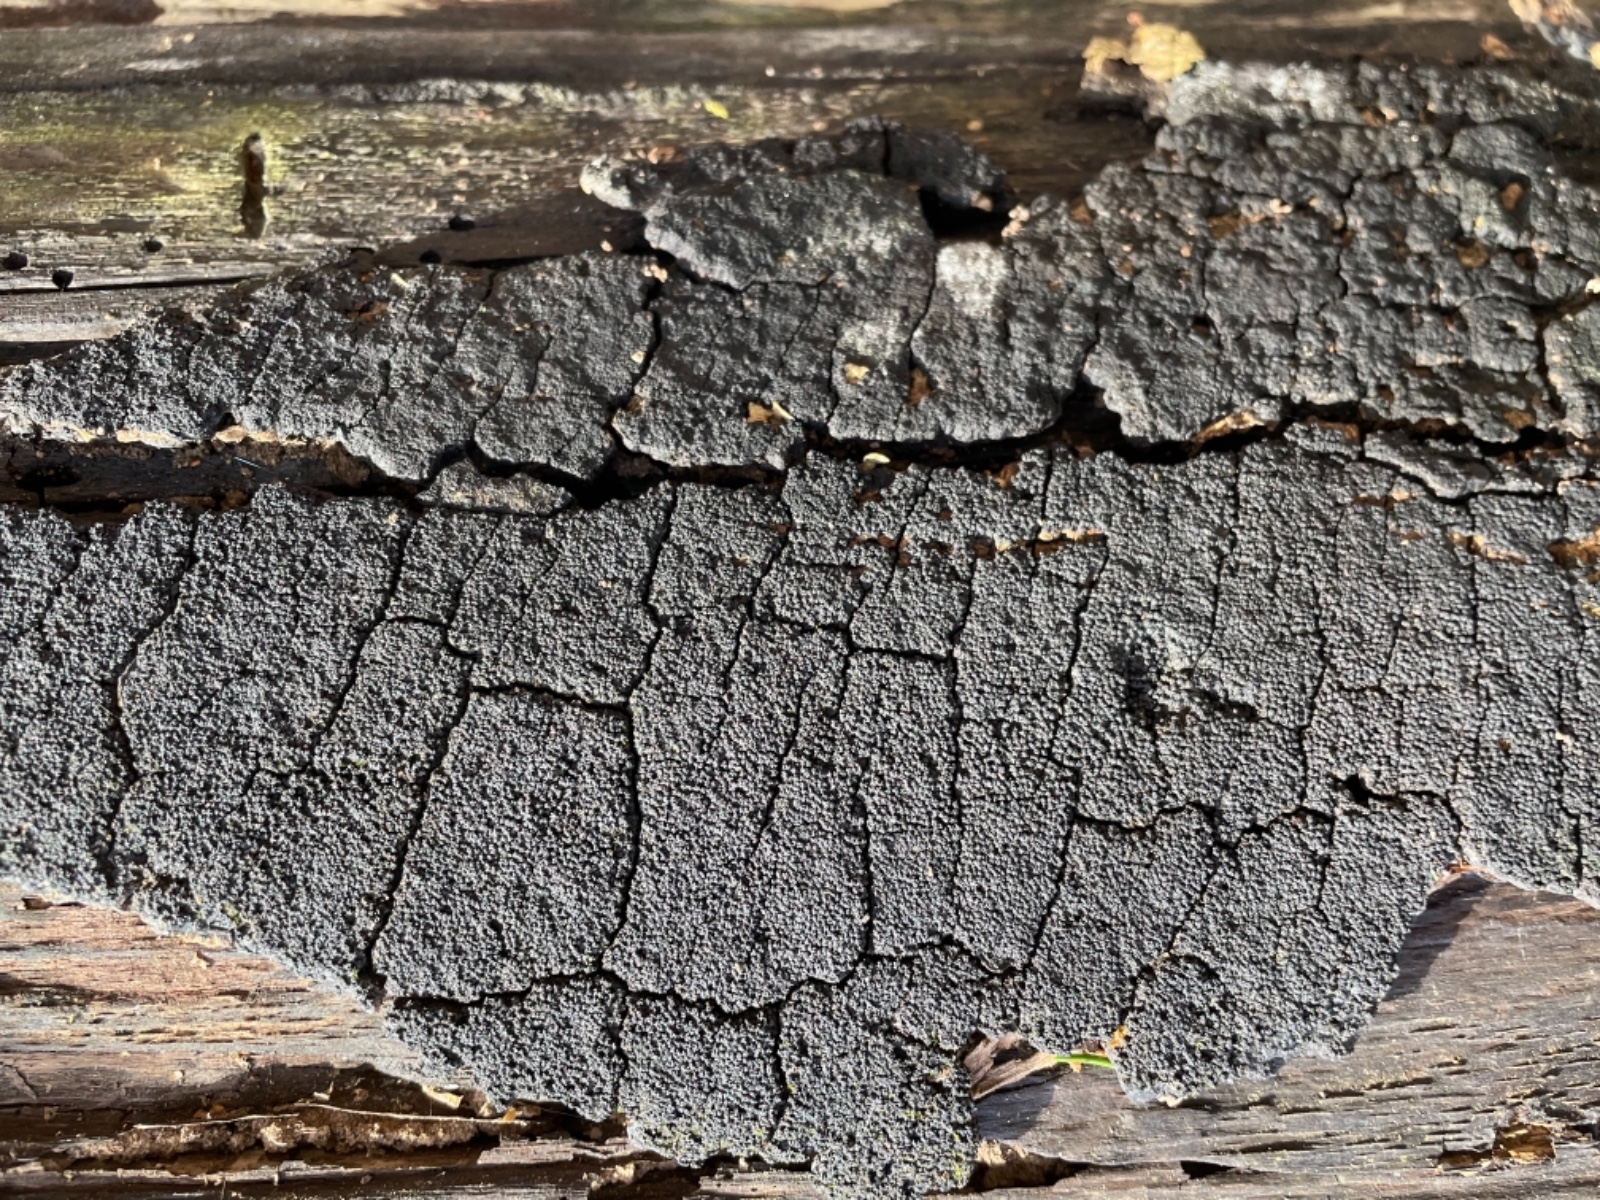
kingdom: Fungi
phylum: Ascomycota
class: Sordariomycetes
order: Xylariales
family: Diatrypaceae
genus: Eutypa
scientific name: Eutypa spinosa
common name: grov kulskorpe
